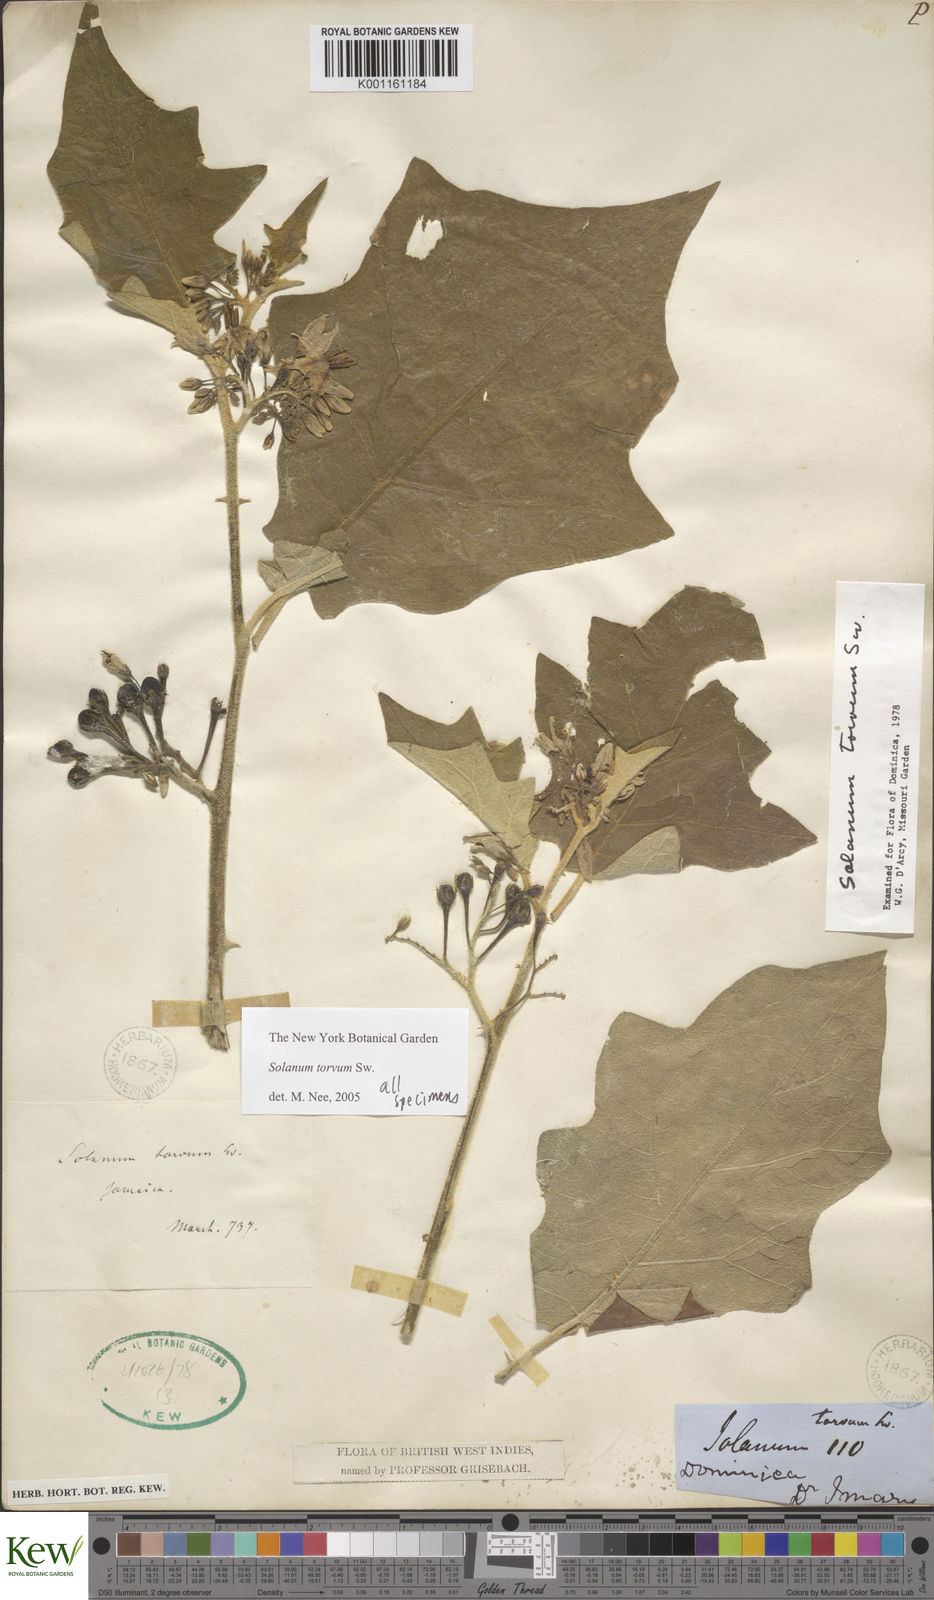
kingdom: Plantae
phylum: Tracheophyta
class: Magnoliopsida
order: Solanales
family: Solanaceae
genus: Solanum
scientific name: Solanum torvum
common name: Turkey berry
